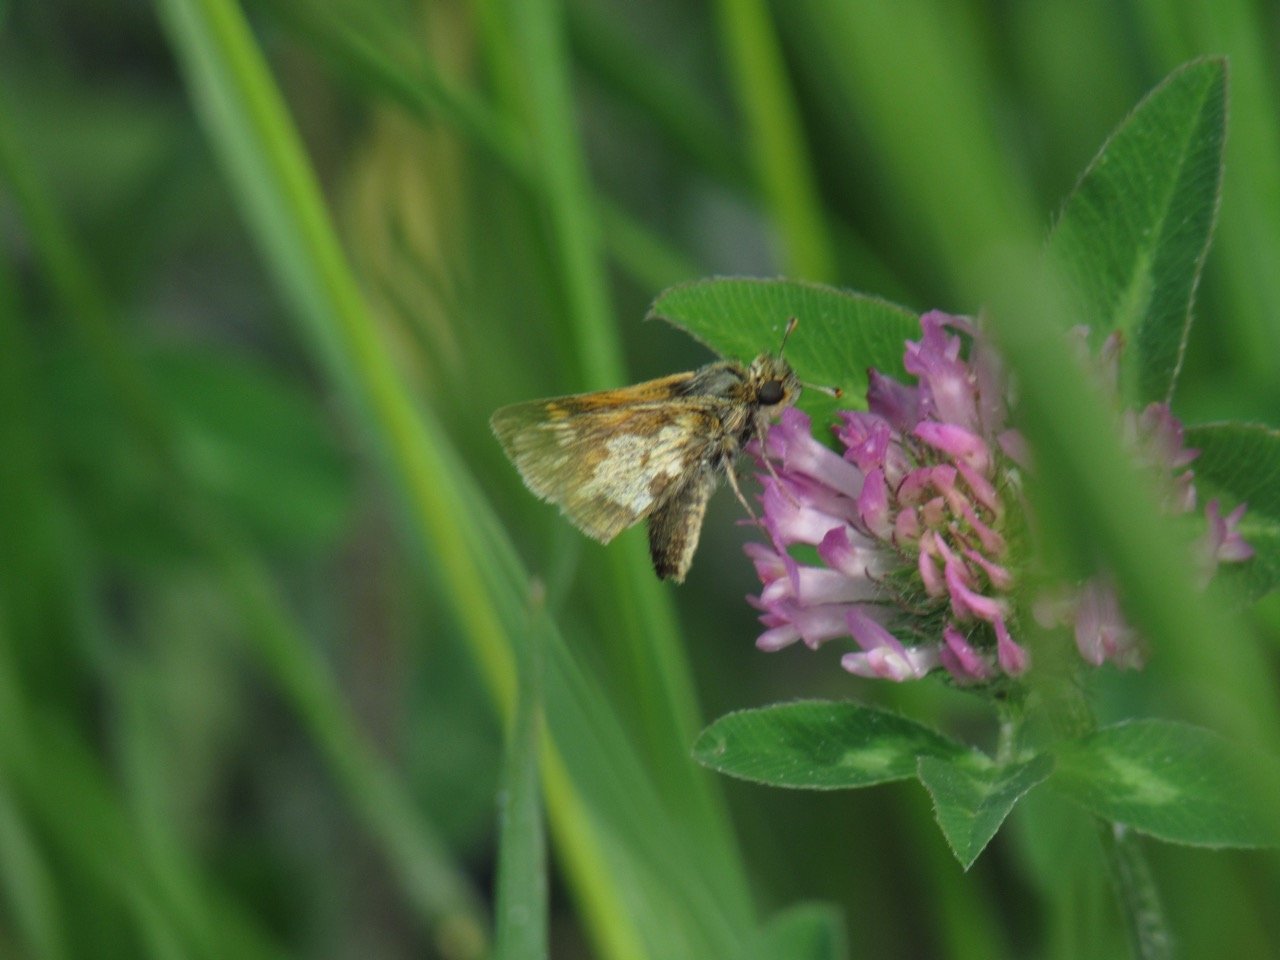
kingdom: Animalia
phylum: Arthropoda
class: Insecta
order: Lepidoptera
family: Hesperiidae
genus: Polites
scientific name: Polites coras
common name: Peck's Skipper
